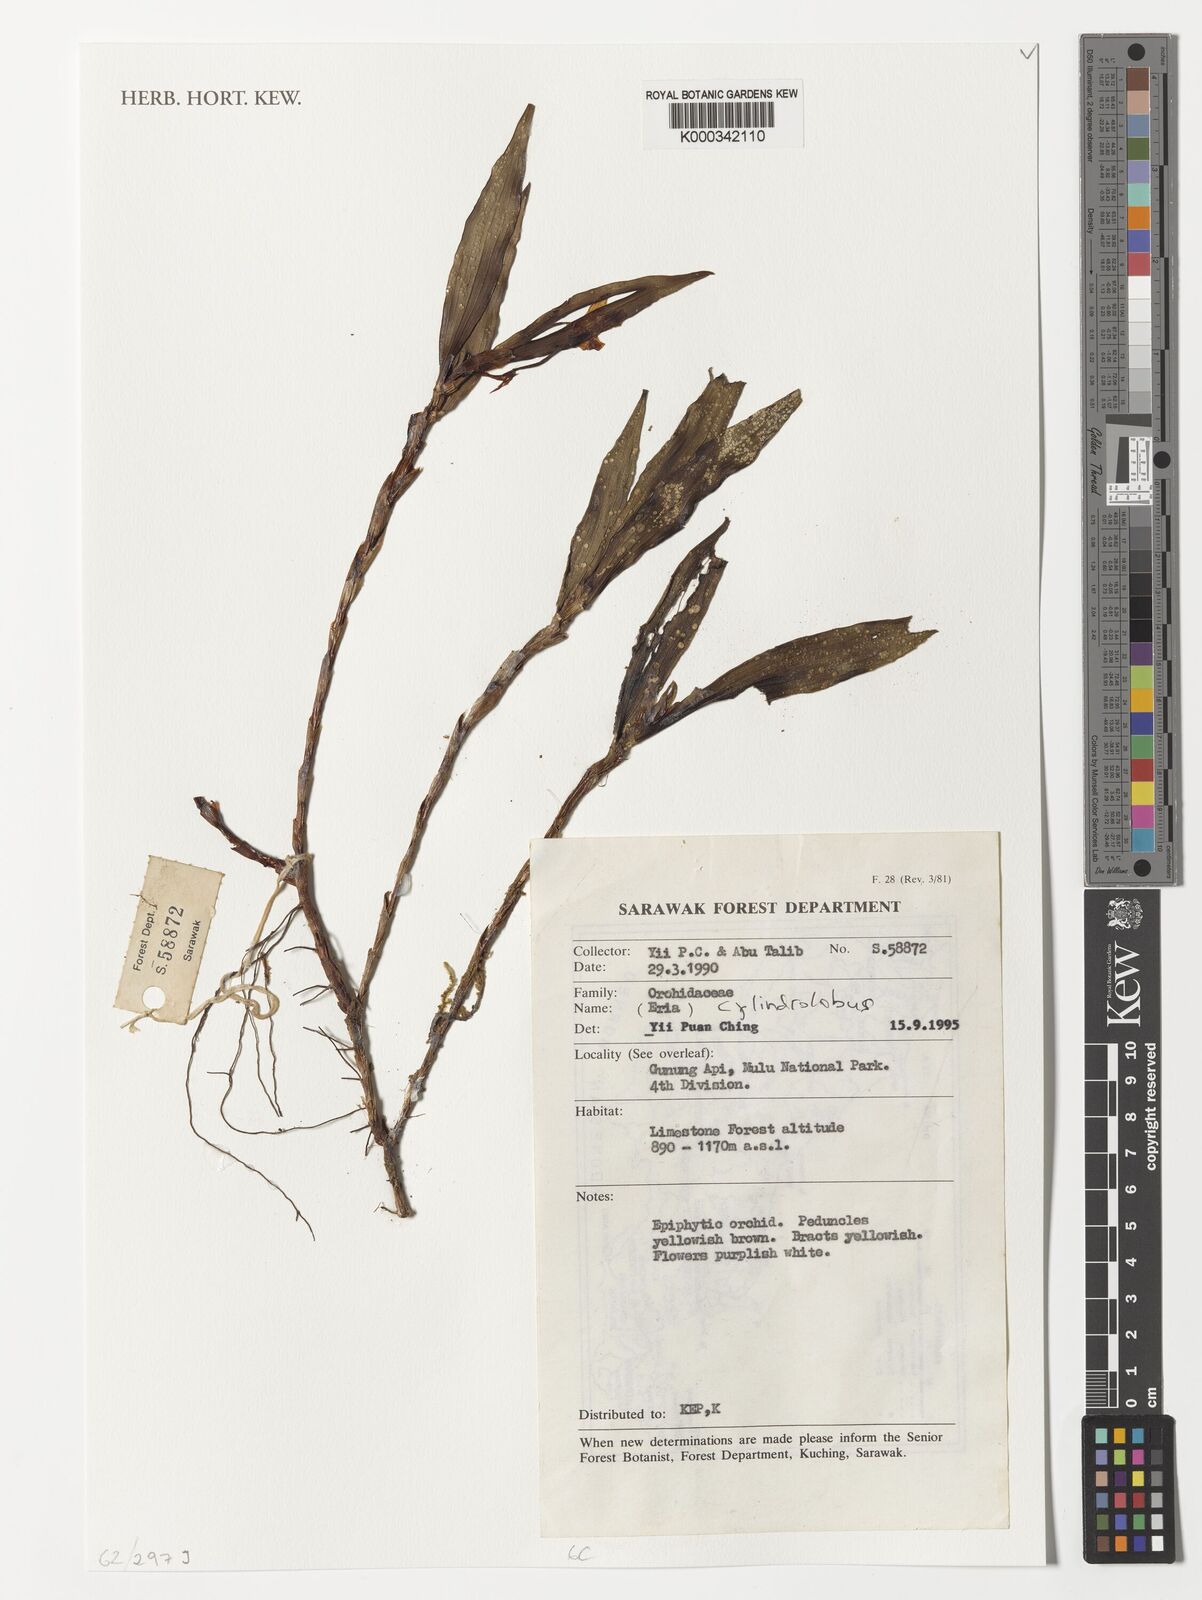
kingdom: Plantae
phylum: Tracheophyta
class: Liliopsida
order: Asparagales
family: Orchidaceae
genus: Cylindrolobus
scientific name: Cylindrolobus
